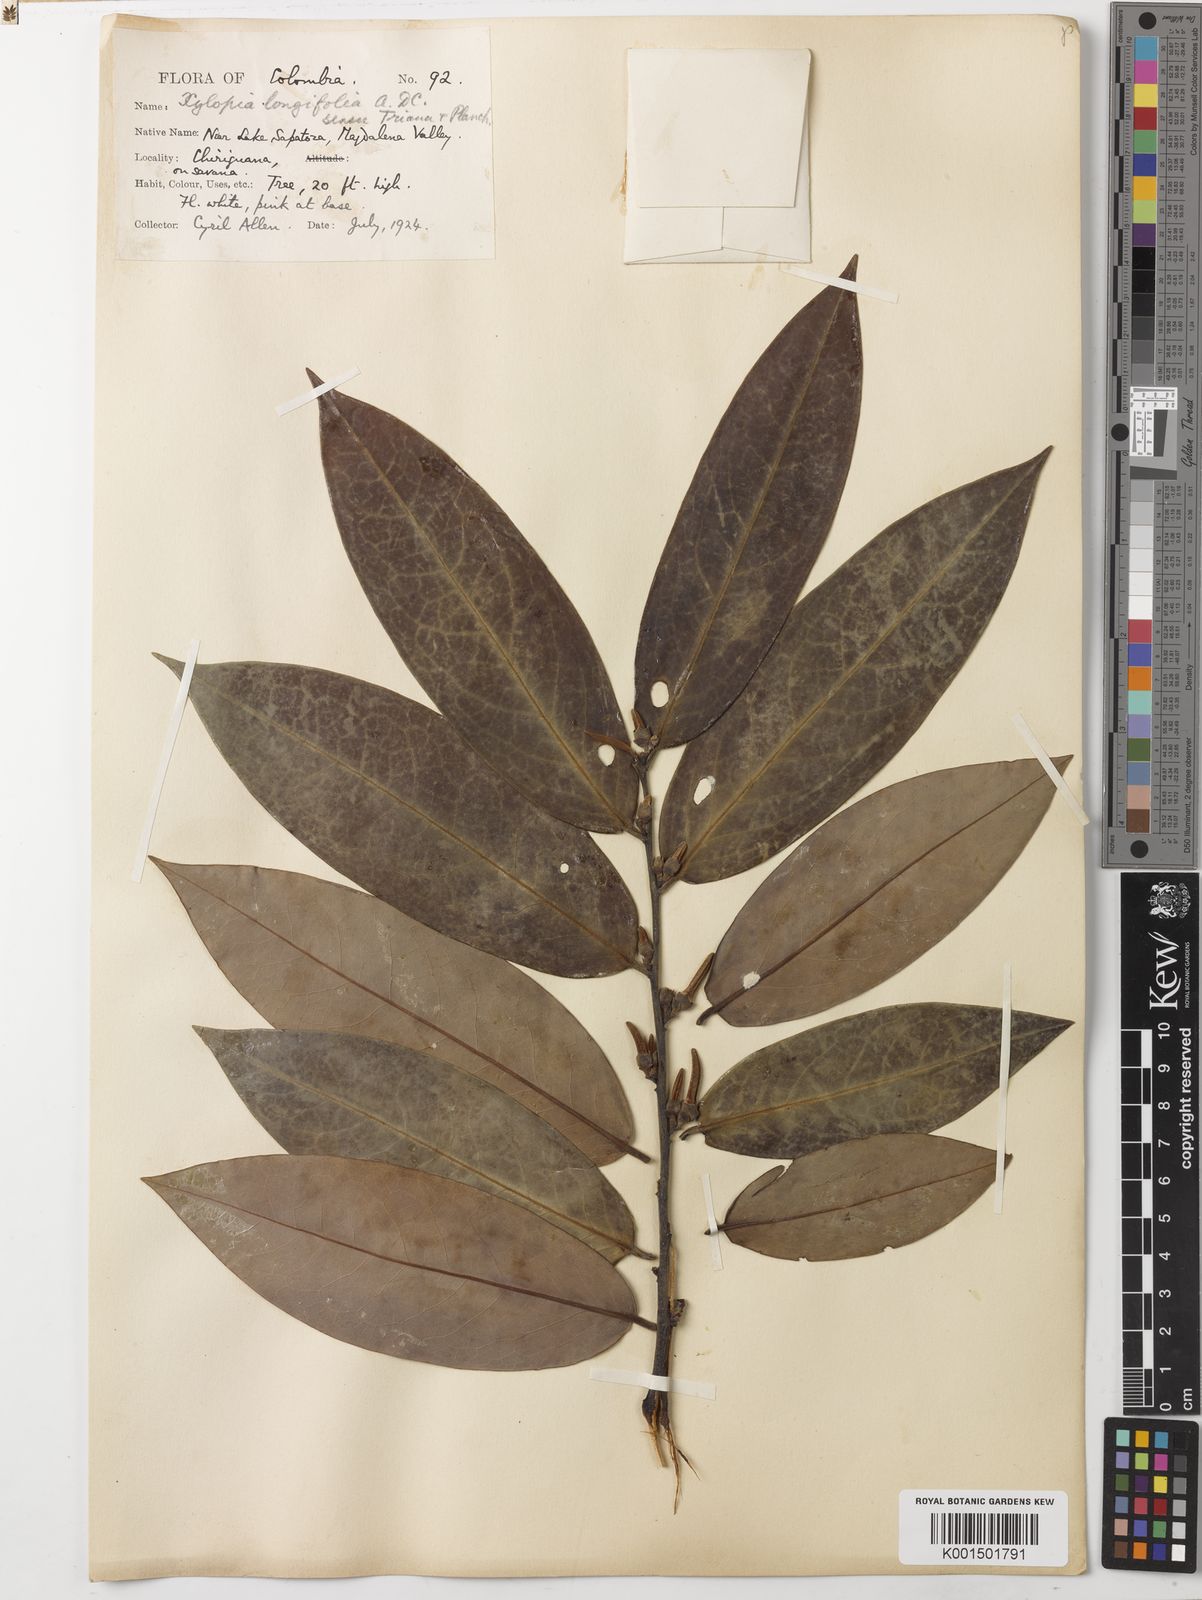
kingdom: Plantae
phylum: Tracheophyta
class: Magnoliopsida
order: Magnoliales
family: Annonaceae
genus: Xylopia
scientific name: Xylopia aromatica
